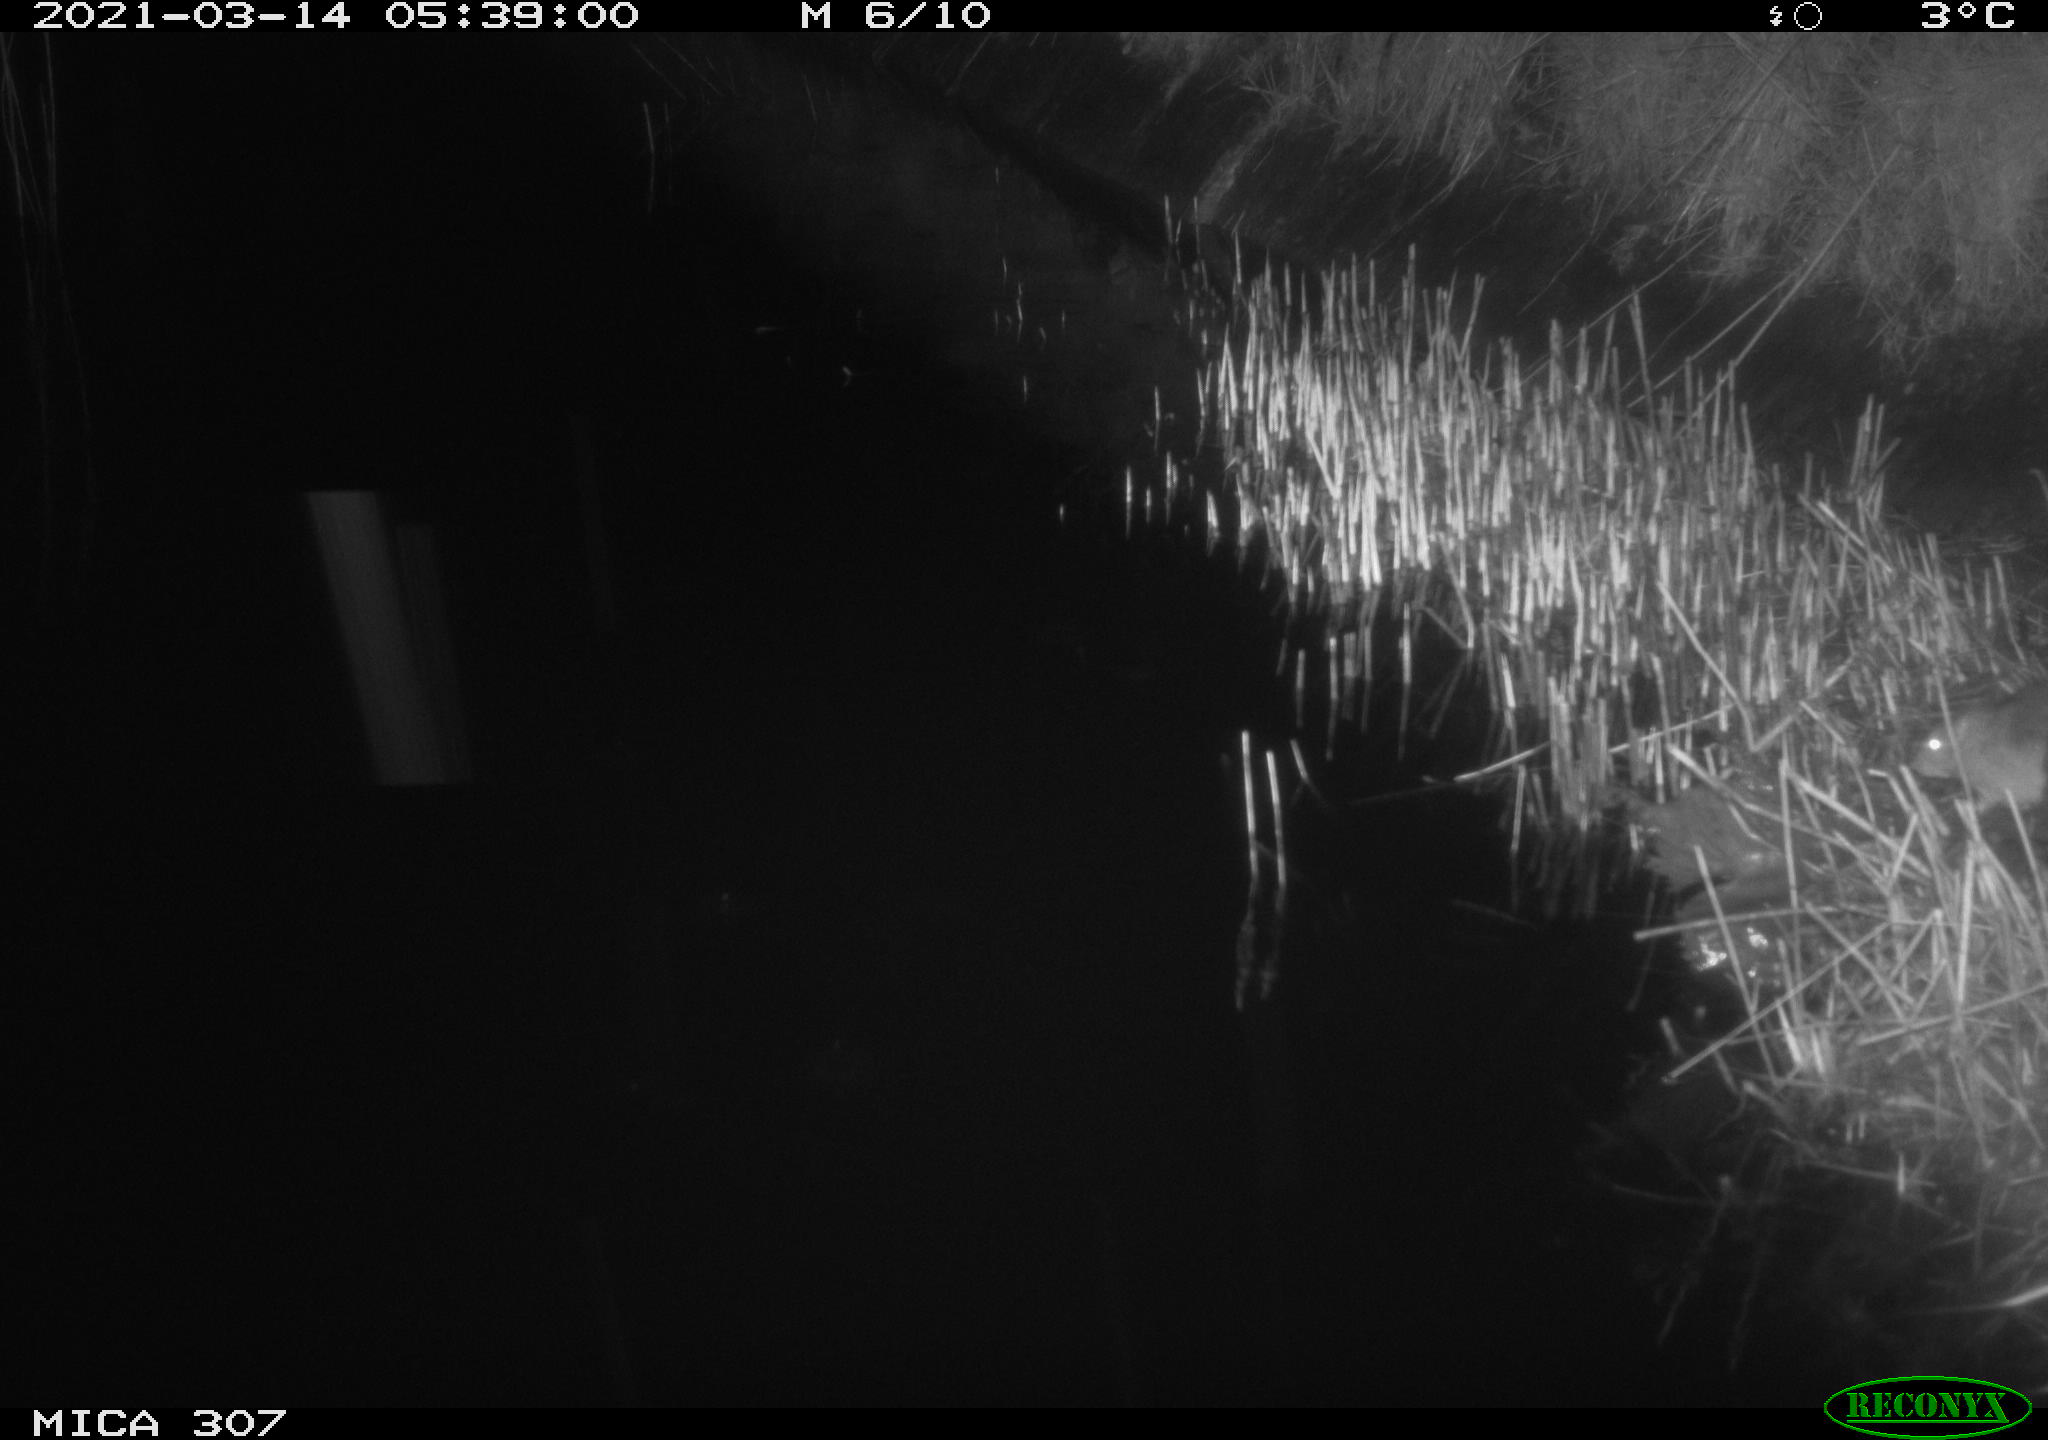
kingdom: Animalia
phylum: Chordata
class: Mammalia
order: Rodentia
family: Muridae
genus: Rattus
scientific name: Rattus norvegicus
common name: Brown rat
